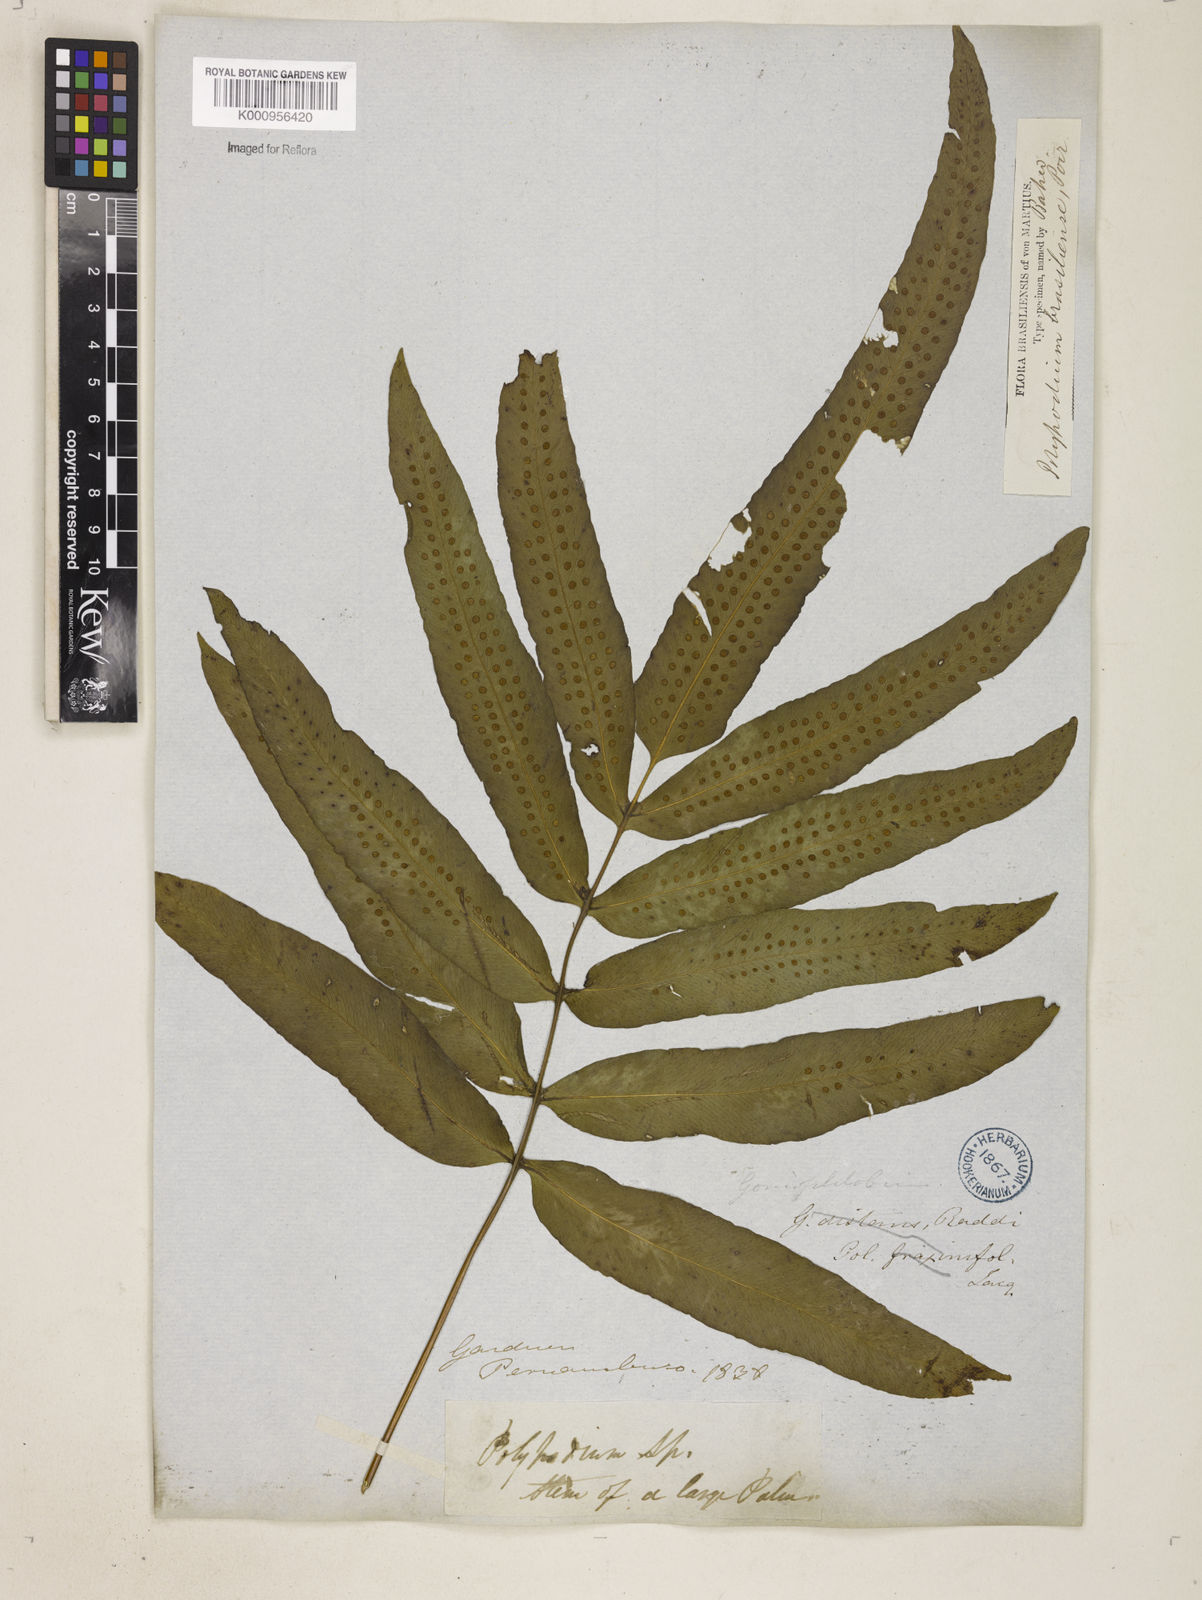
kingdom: Plantae
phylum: Tracheophyta
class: Polypodiopsida
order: Polypodiales
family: Polypodiaceae
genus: Serpocaulon
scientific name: Serpocaulon triseriale
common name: Angle-vein fern
